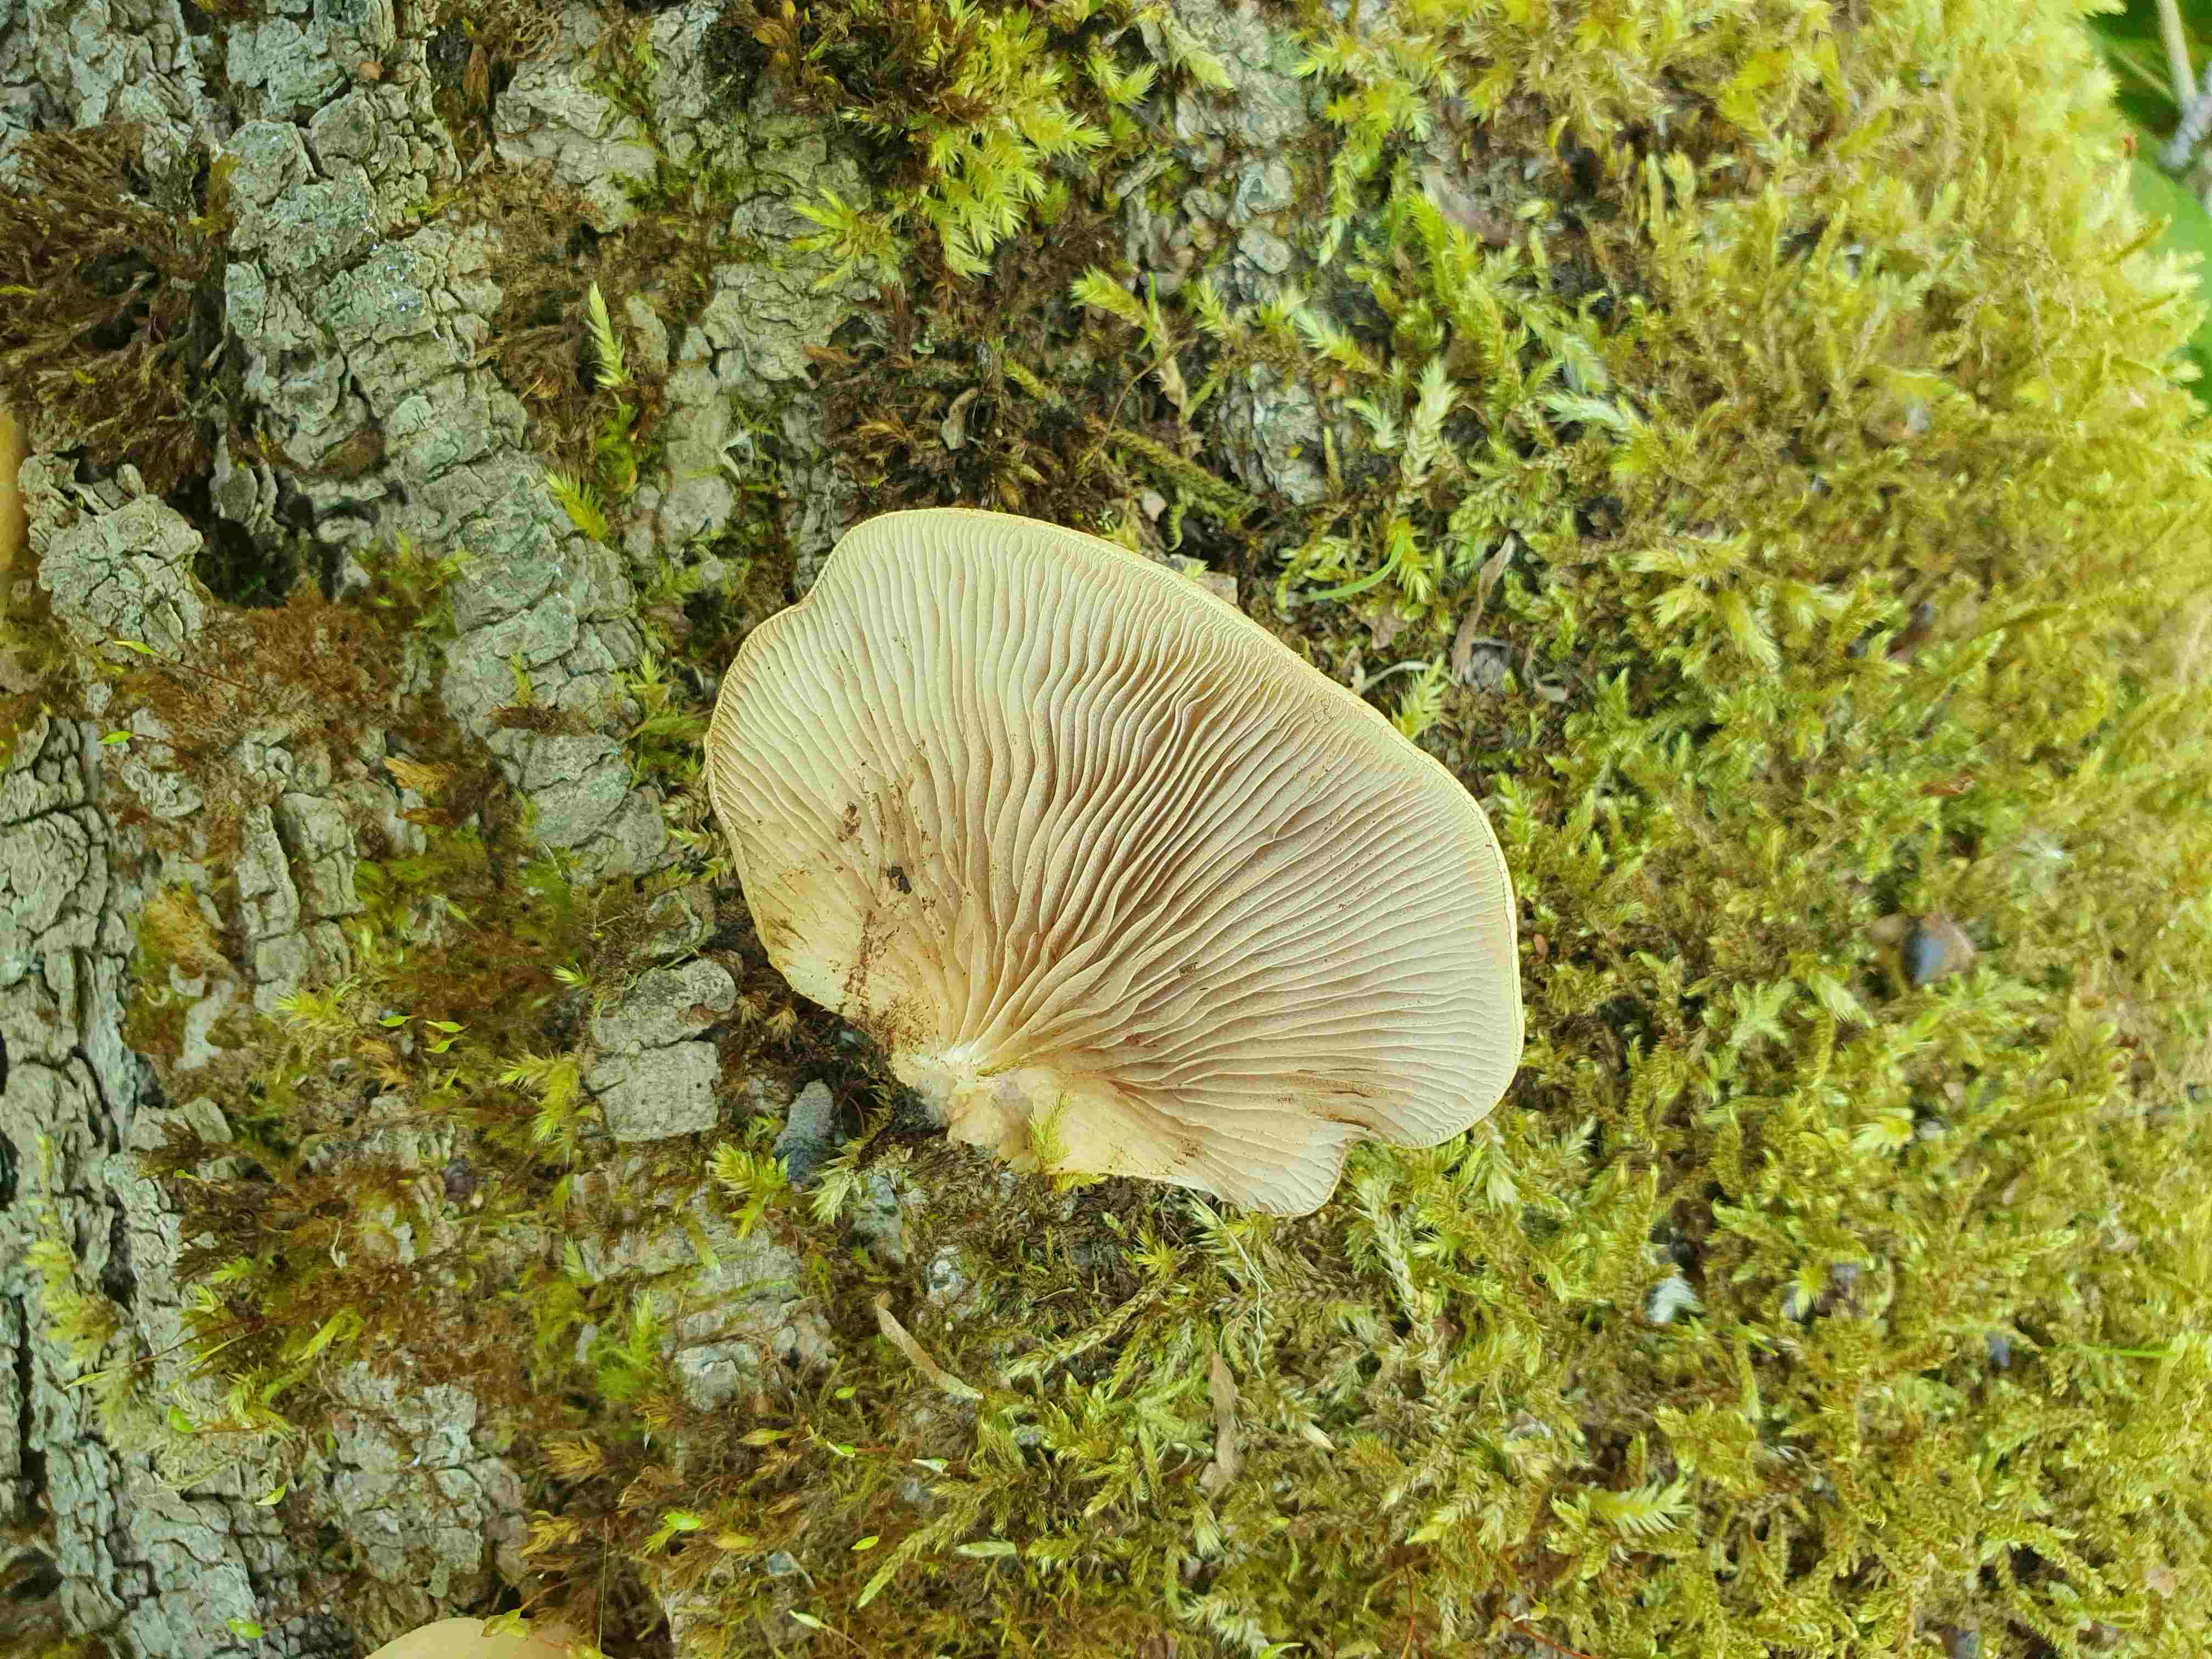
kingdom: Fungi
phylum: Basidiomycota
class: Agaricomycetes
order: Agaricales
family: Crepidotaceae
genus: Crepidotus
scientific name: Crepidotus mollis
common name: blød muslingesvamp
